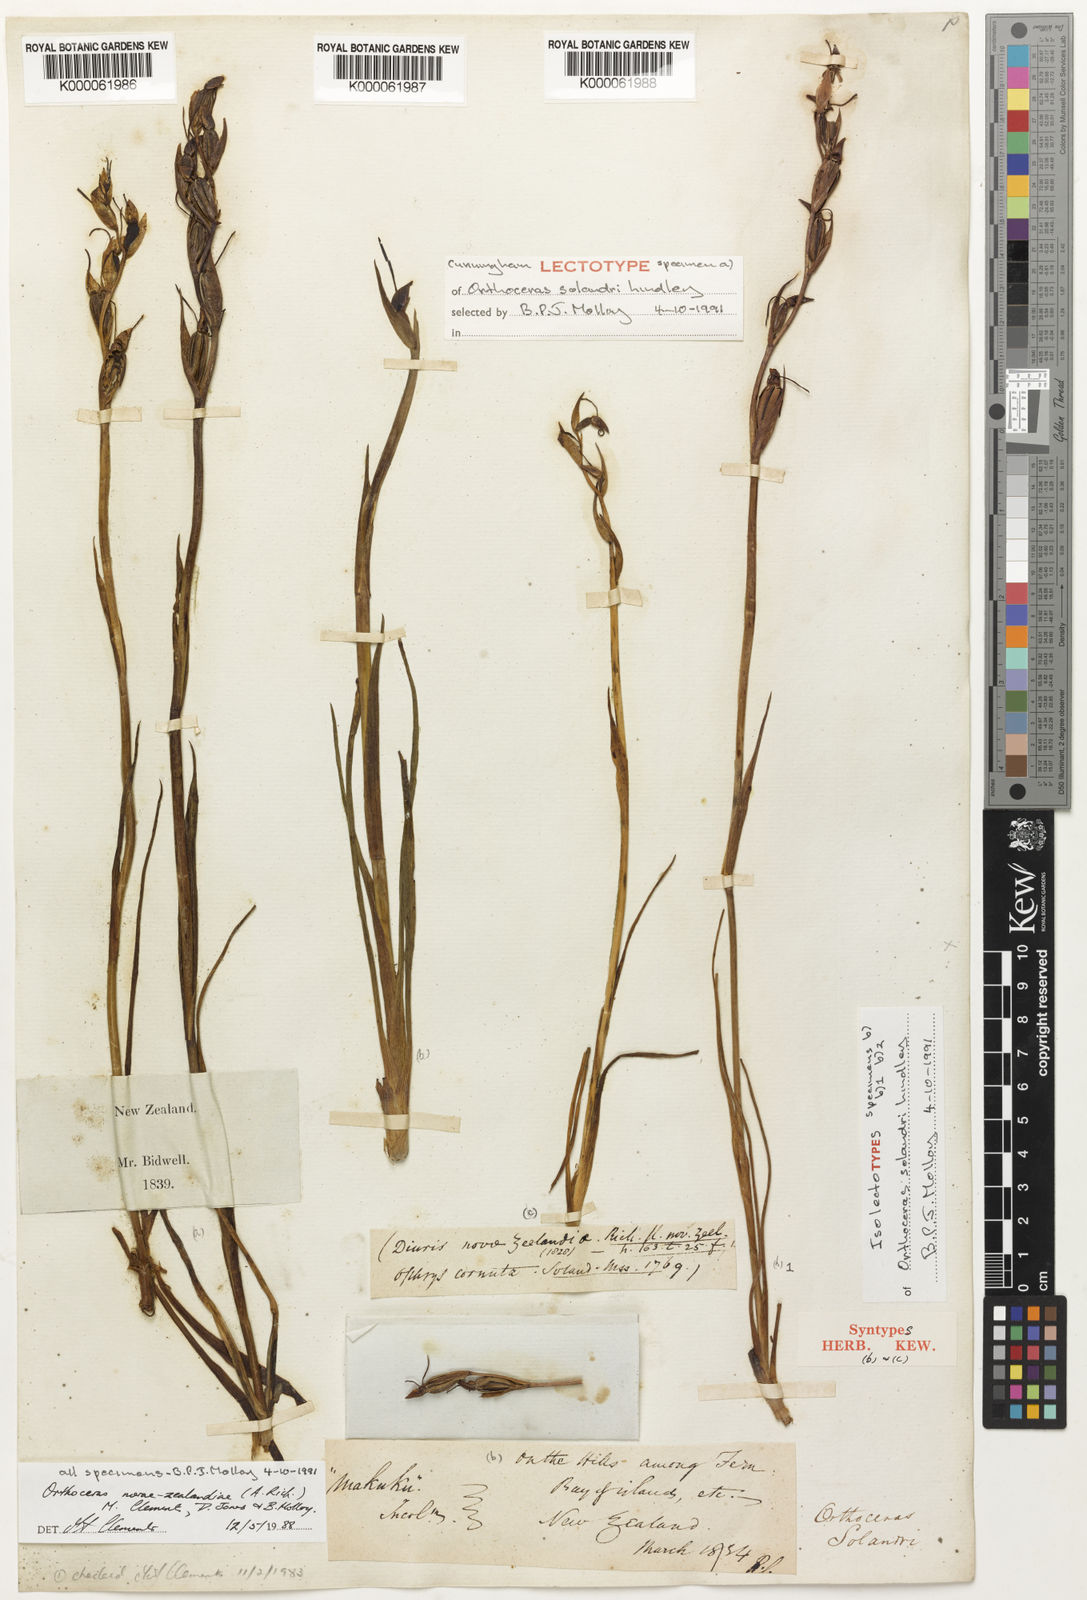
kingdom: Plantae
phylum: Tracheophyta
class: Liliopsida
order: Asparagales
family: Orchidaceae
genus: Orthoceras
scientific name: Orthoceras novae-zeelandiae
